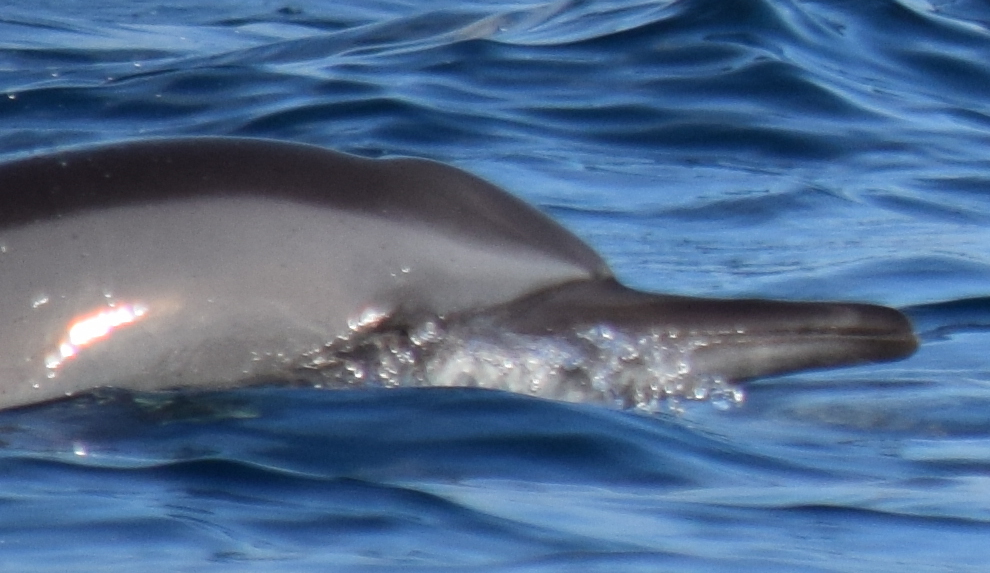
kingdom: Animalia
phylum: Chordata
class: Mammalia
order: Cetacea
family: Delphinidae
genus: Stenella
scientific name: Stenella longirostris
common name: Spinner Dolphin
